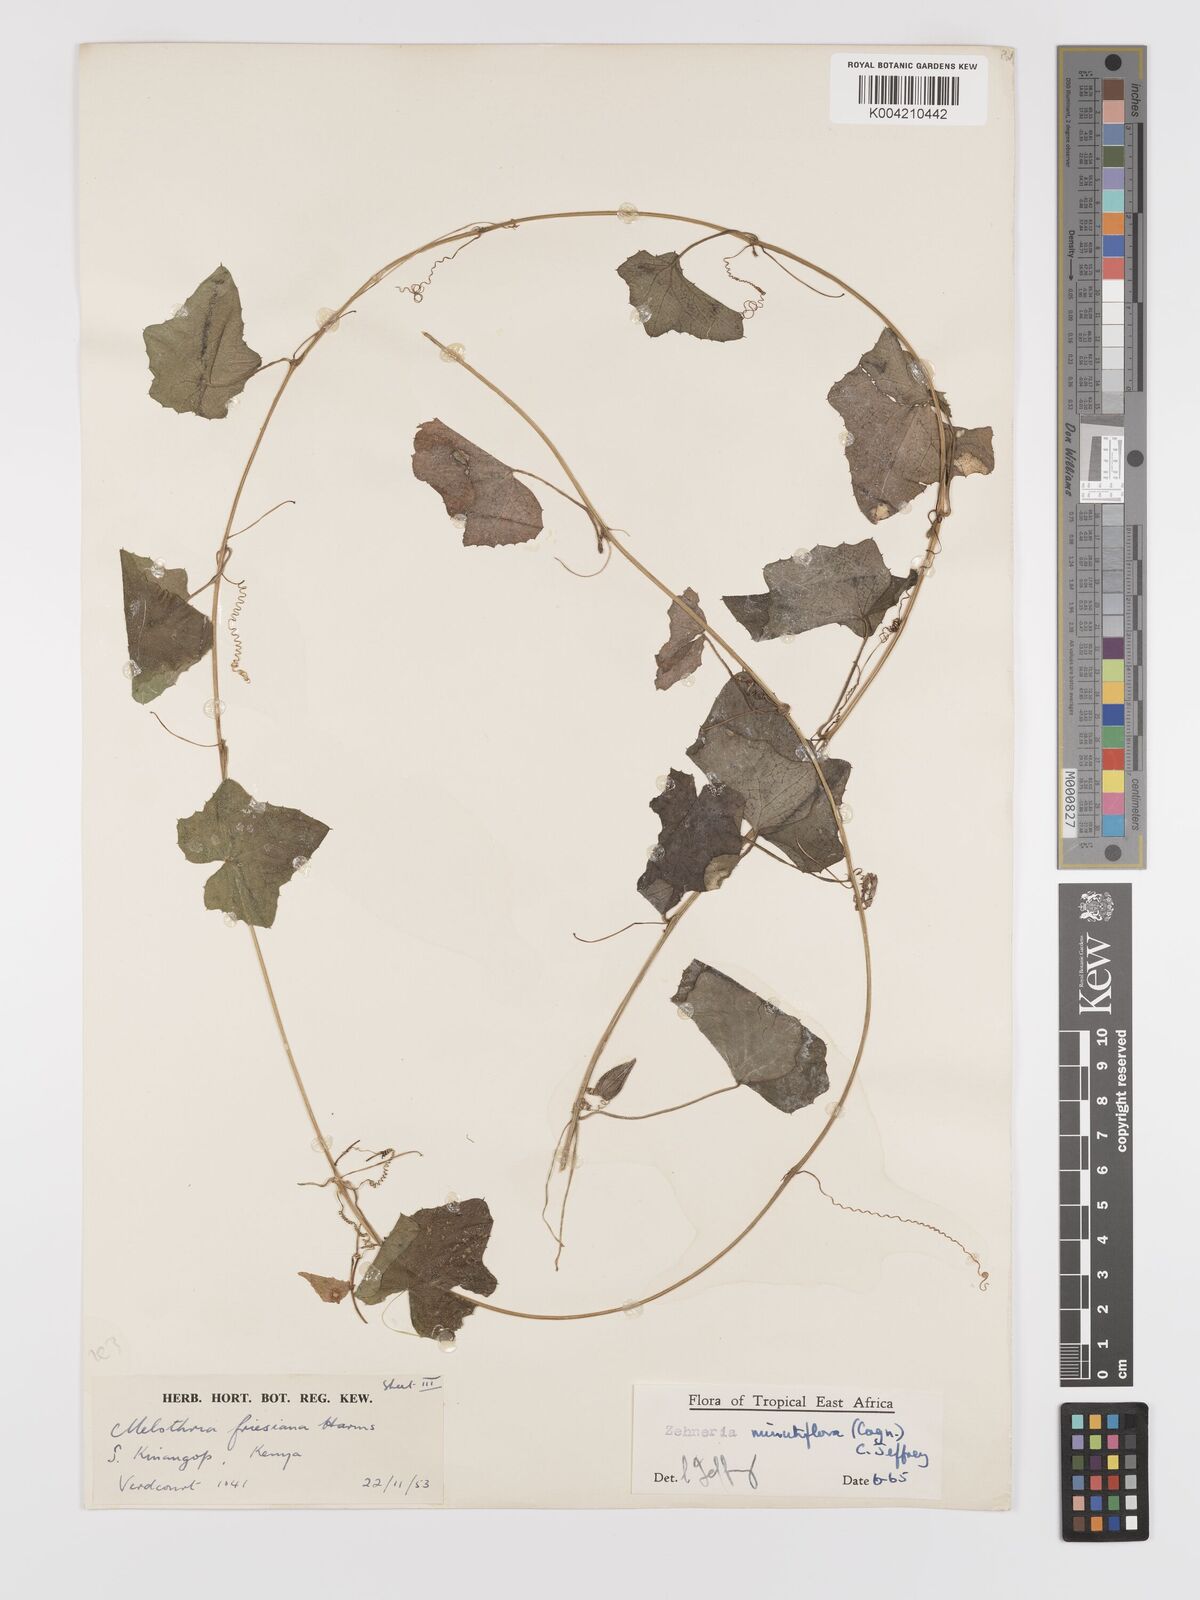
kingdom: Plantae
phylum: Tracheophyta
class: Magnoliopsida
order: Cucurbitales
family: Cucurbitaceae
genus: Zehneria
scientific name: Zehneria minutiflora
